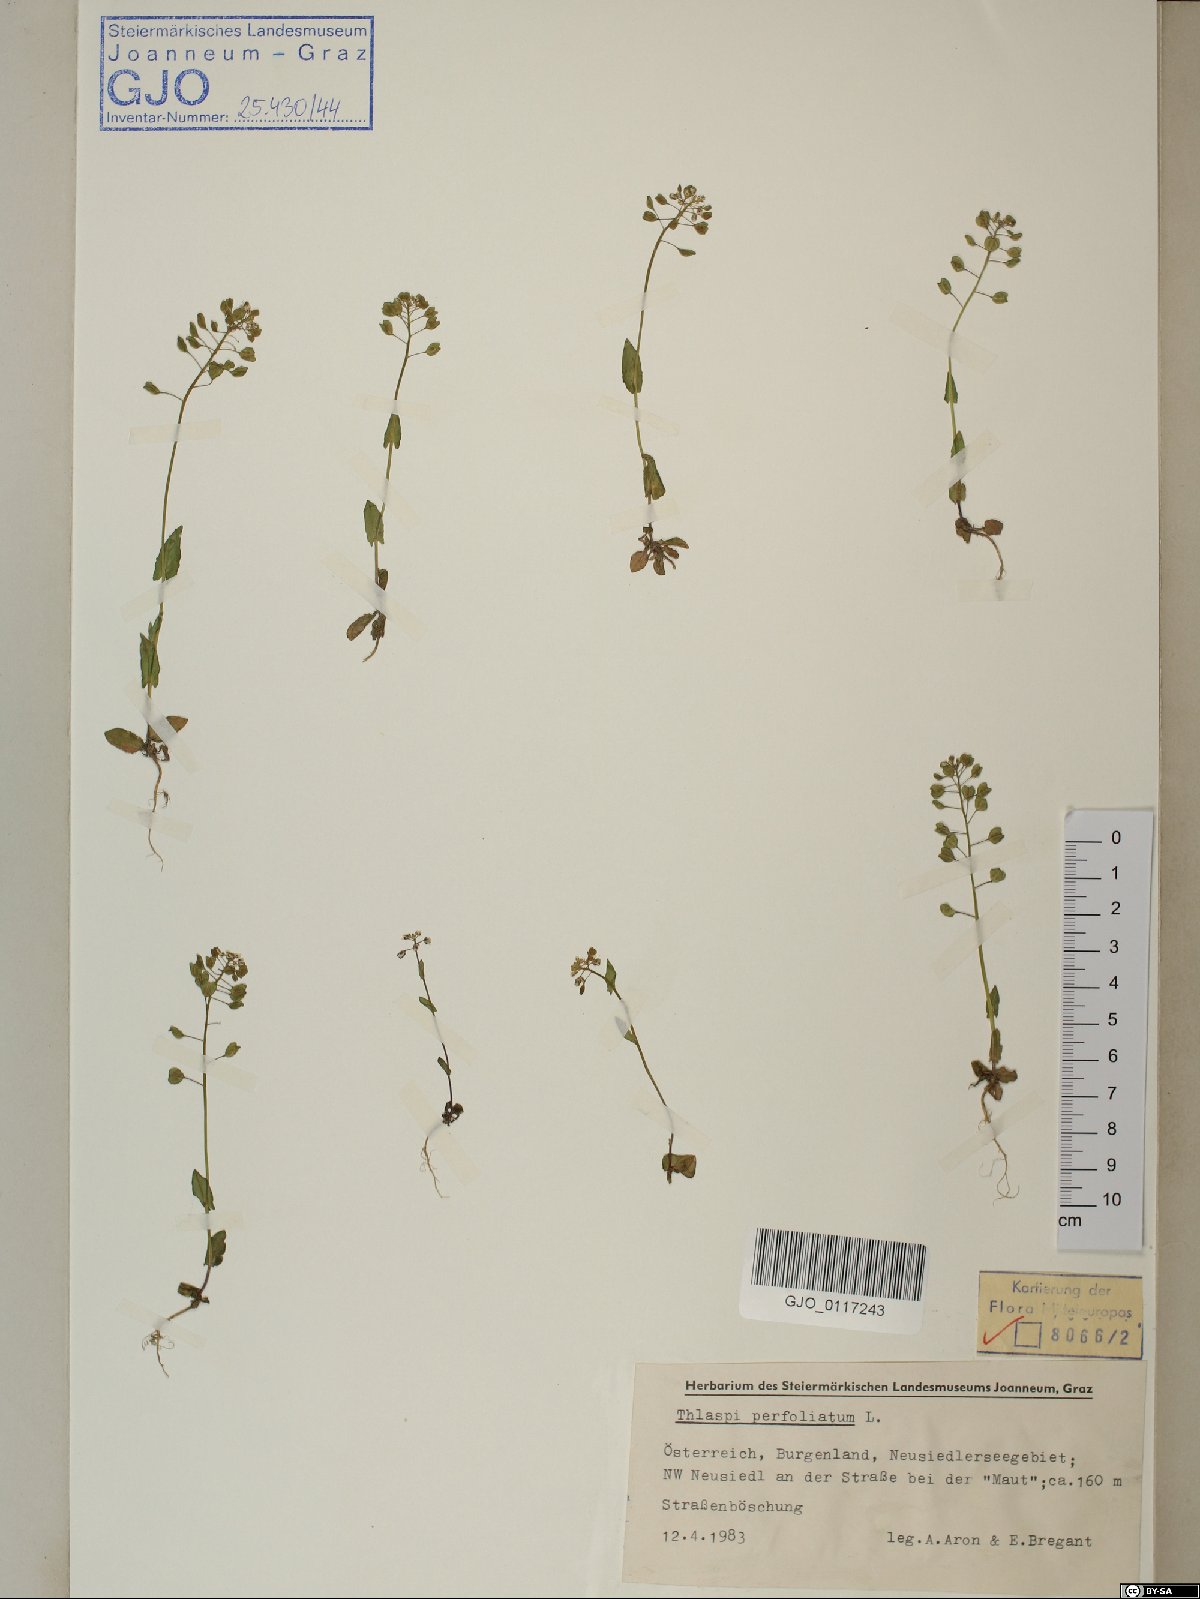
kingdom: Plantae
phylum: Tracheophyta
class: Magnoliopsida
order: Brassicales
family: Brassicaceae
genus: Noccaea
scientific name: Noccaea perfoliata
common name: Perfoliate pennycress
